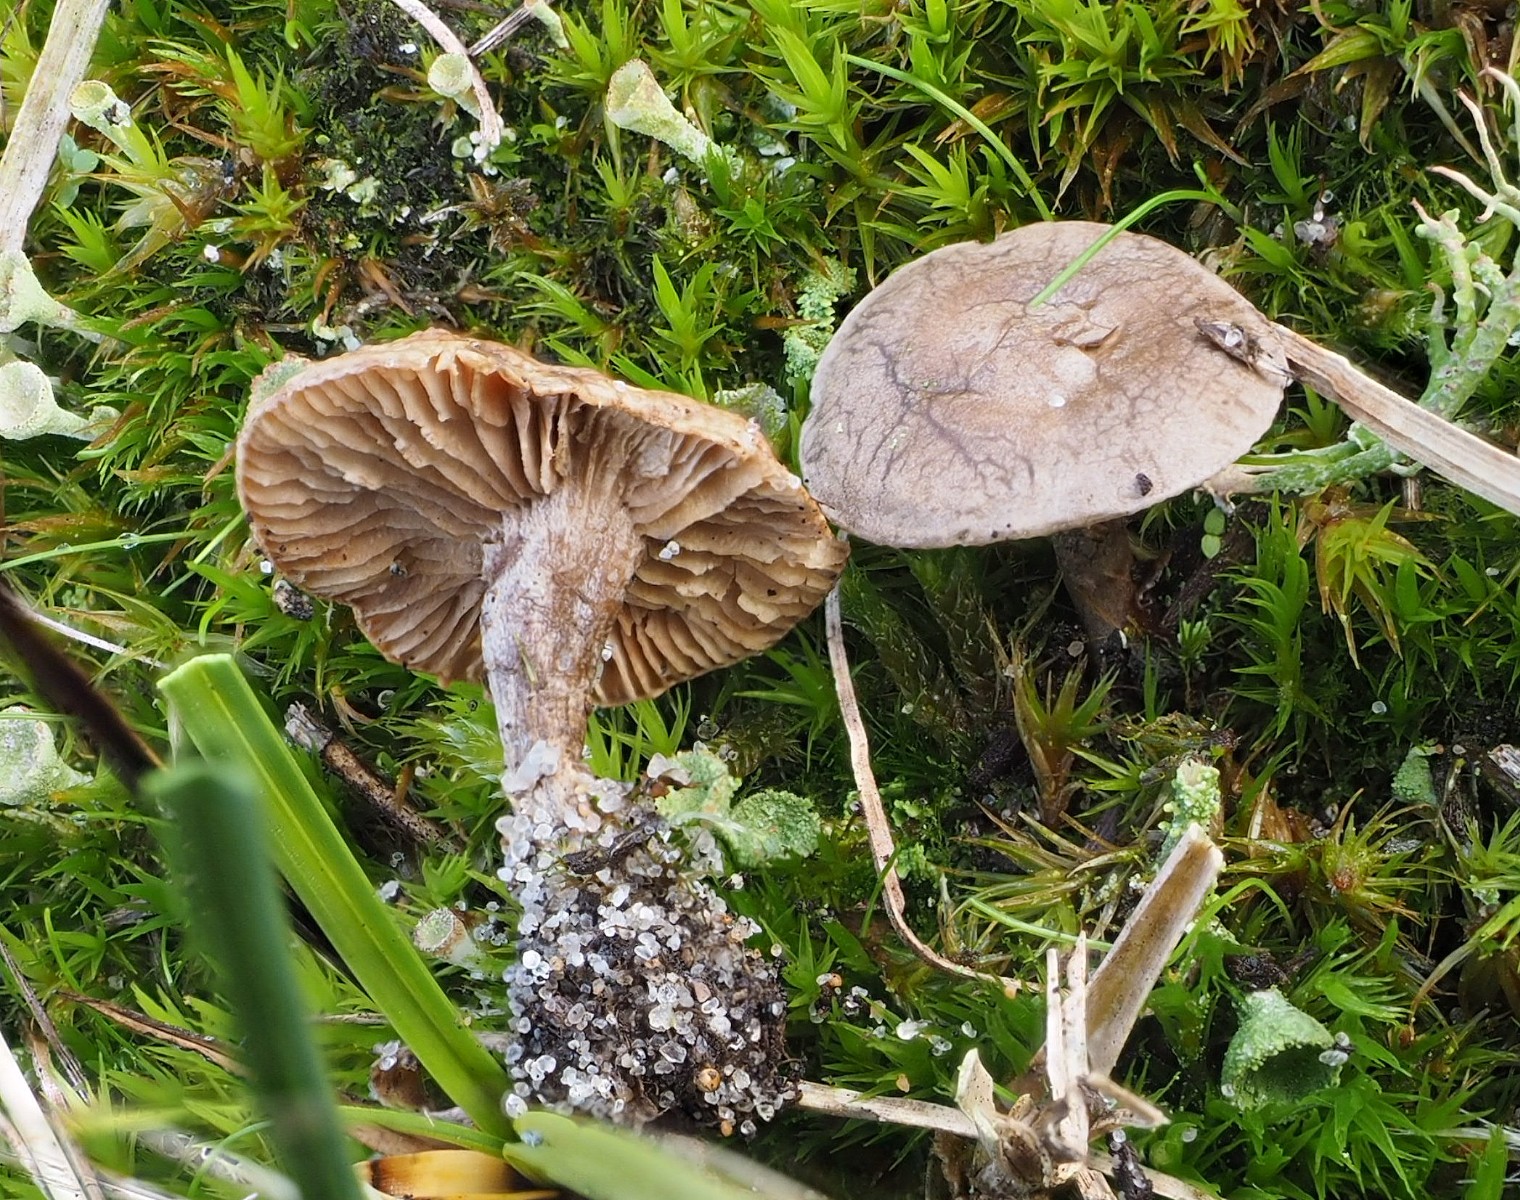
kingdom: Fungi
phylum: Basidiomycota
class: Agaricomycetes
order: Agaricales
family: Entolomataceae
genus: Clitopilus
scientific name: Clitopilus caelatus
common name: gråbrun troldhat
